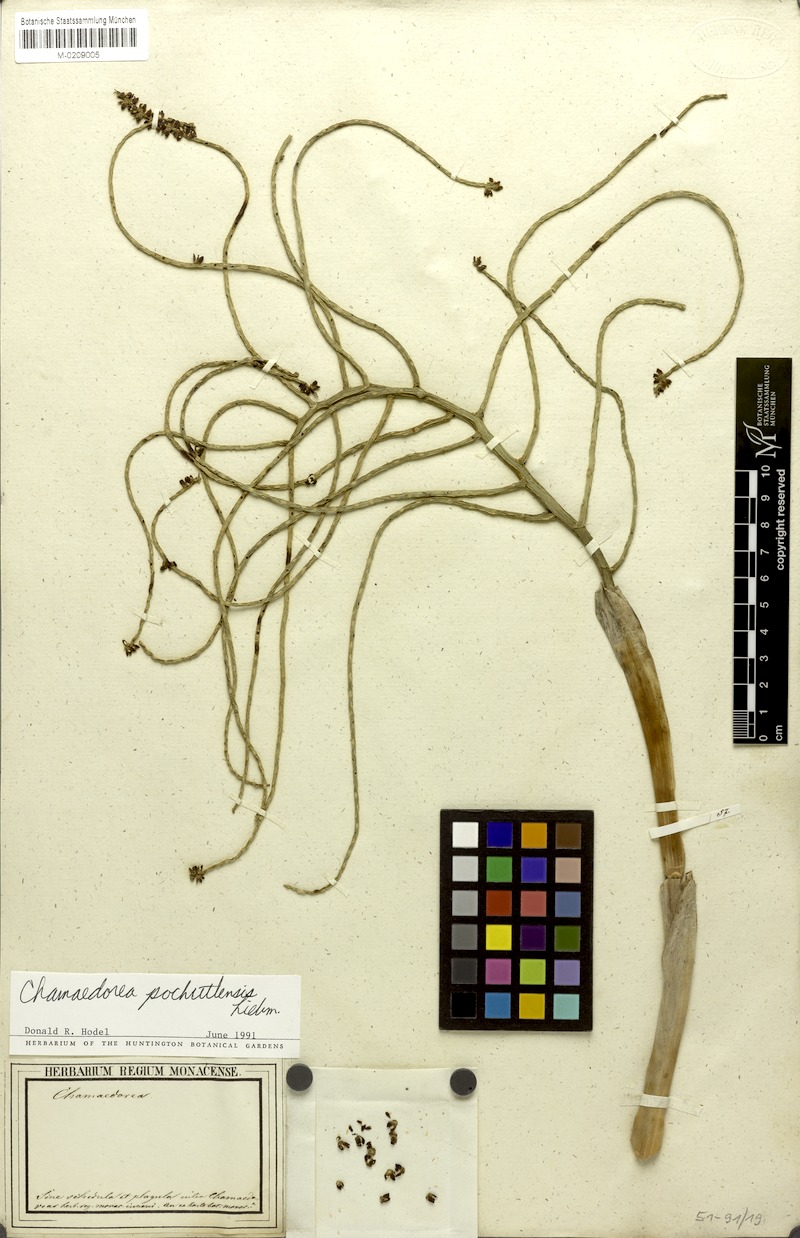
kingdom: Plantae
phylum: Tracheophyta
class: Liliopsida
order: Arecales
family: Arecaceae
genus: Chamaedorea
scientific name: Chamaedorea pochutlensis
